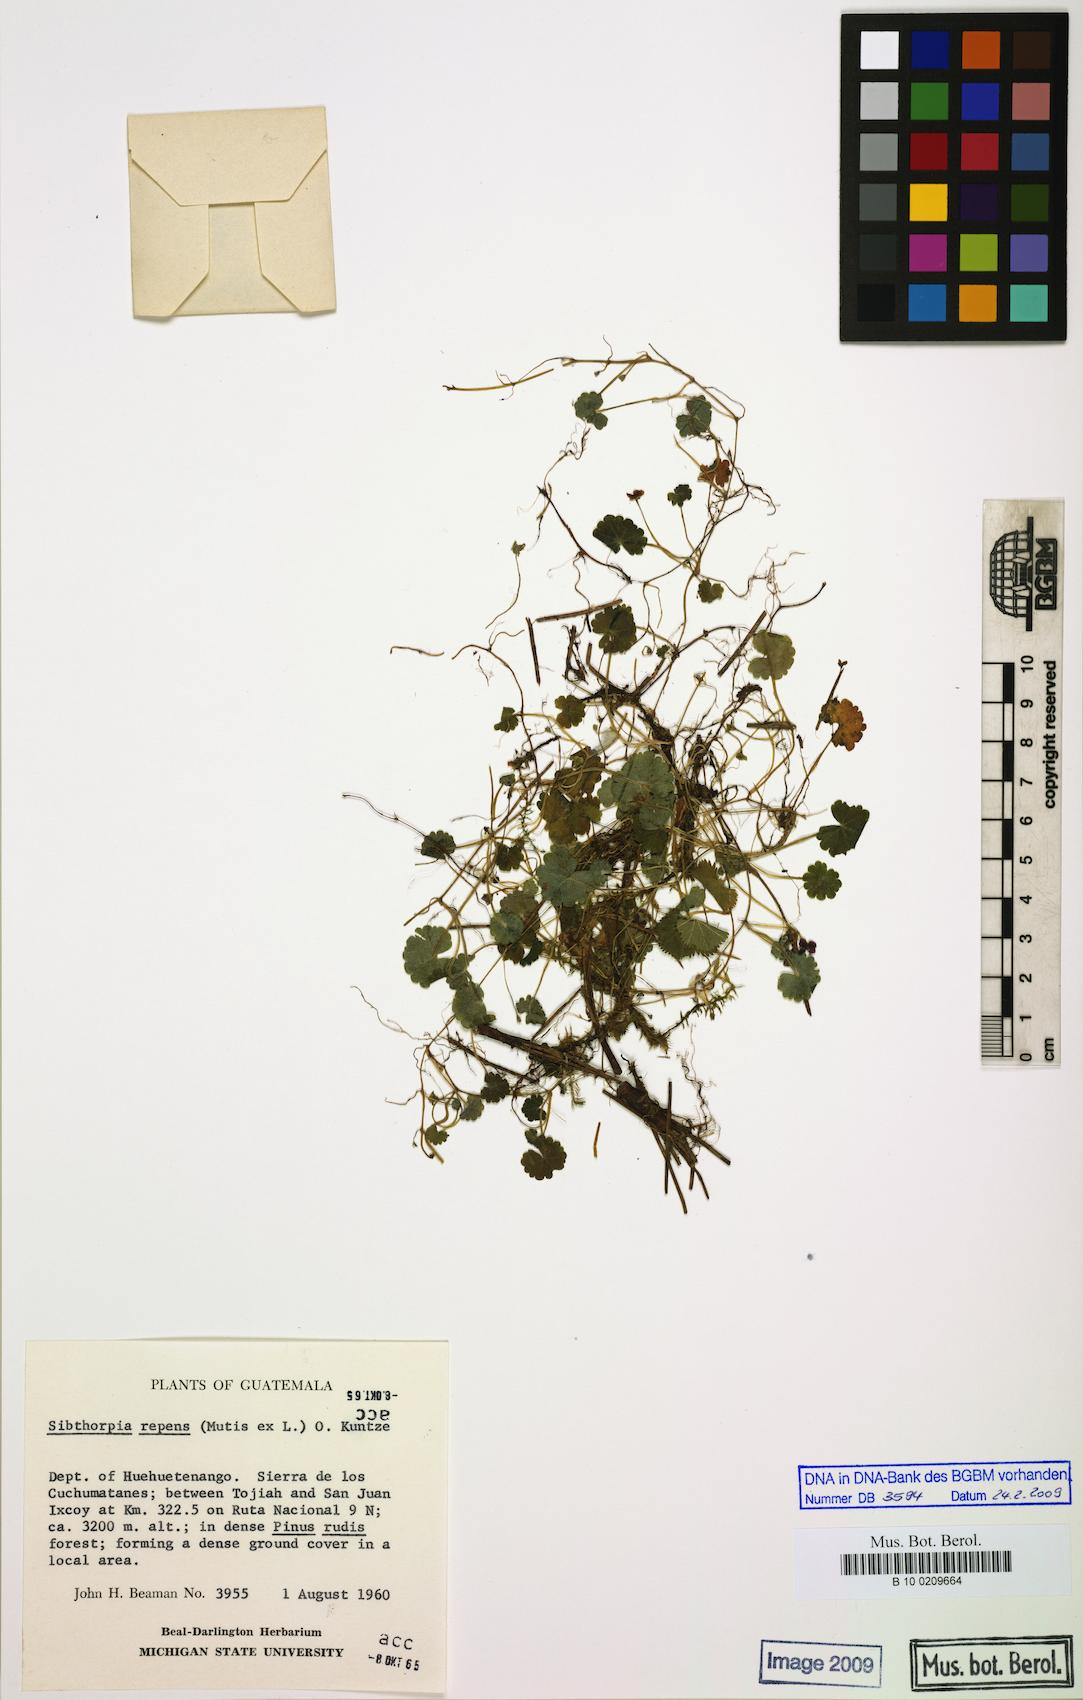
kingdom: Plantae
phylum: Tracheophyta
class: Magnoliopsida
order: Lamiales
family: Plantaginaceae
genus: Sibthorpia
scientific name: Sibthorpia repens
